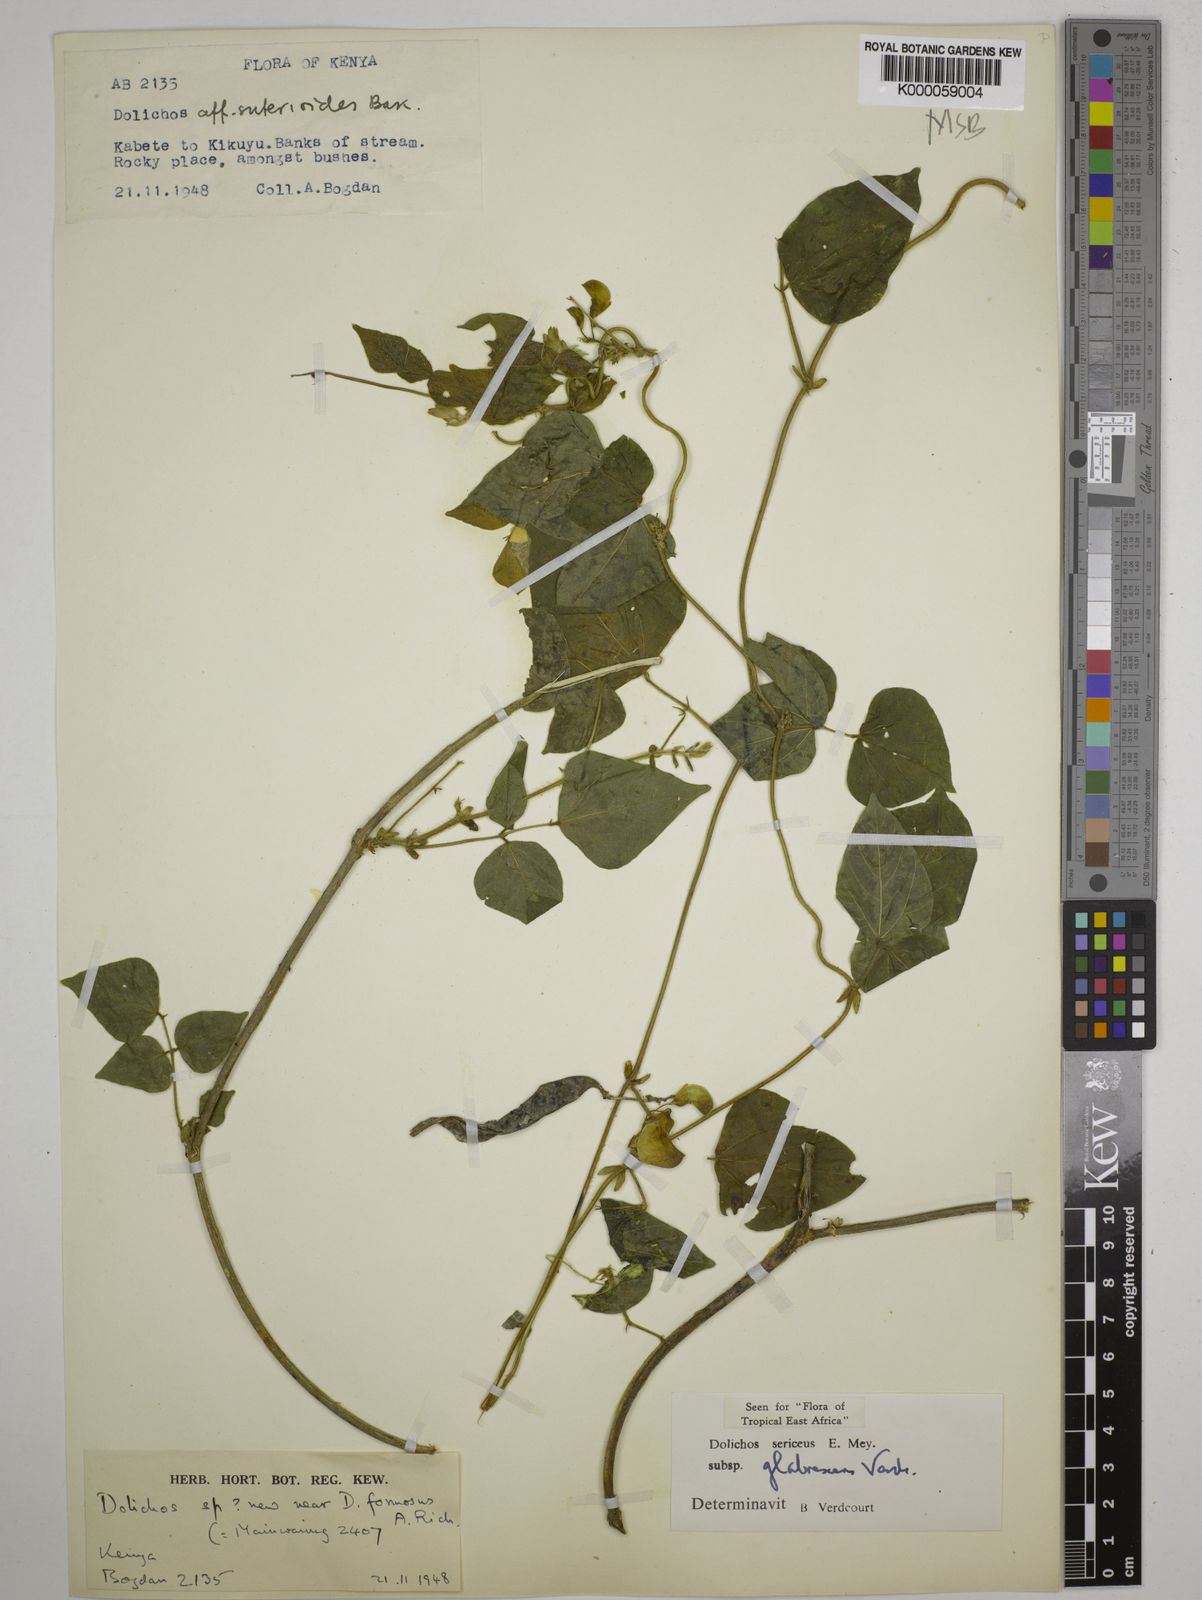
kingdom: Plantae
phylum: Tracheophyta
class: Magnoliopsida
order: Fabales
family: Fabaceae
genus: Dolichos
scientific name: Dolichos sericeus
